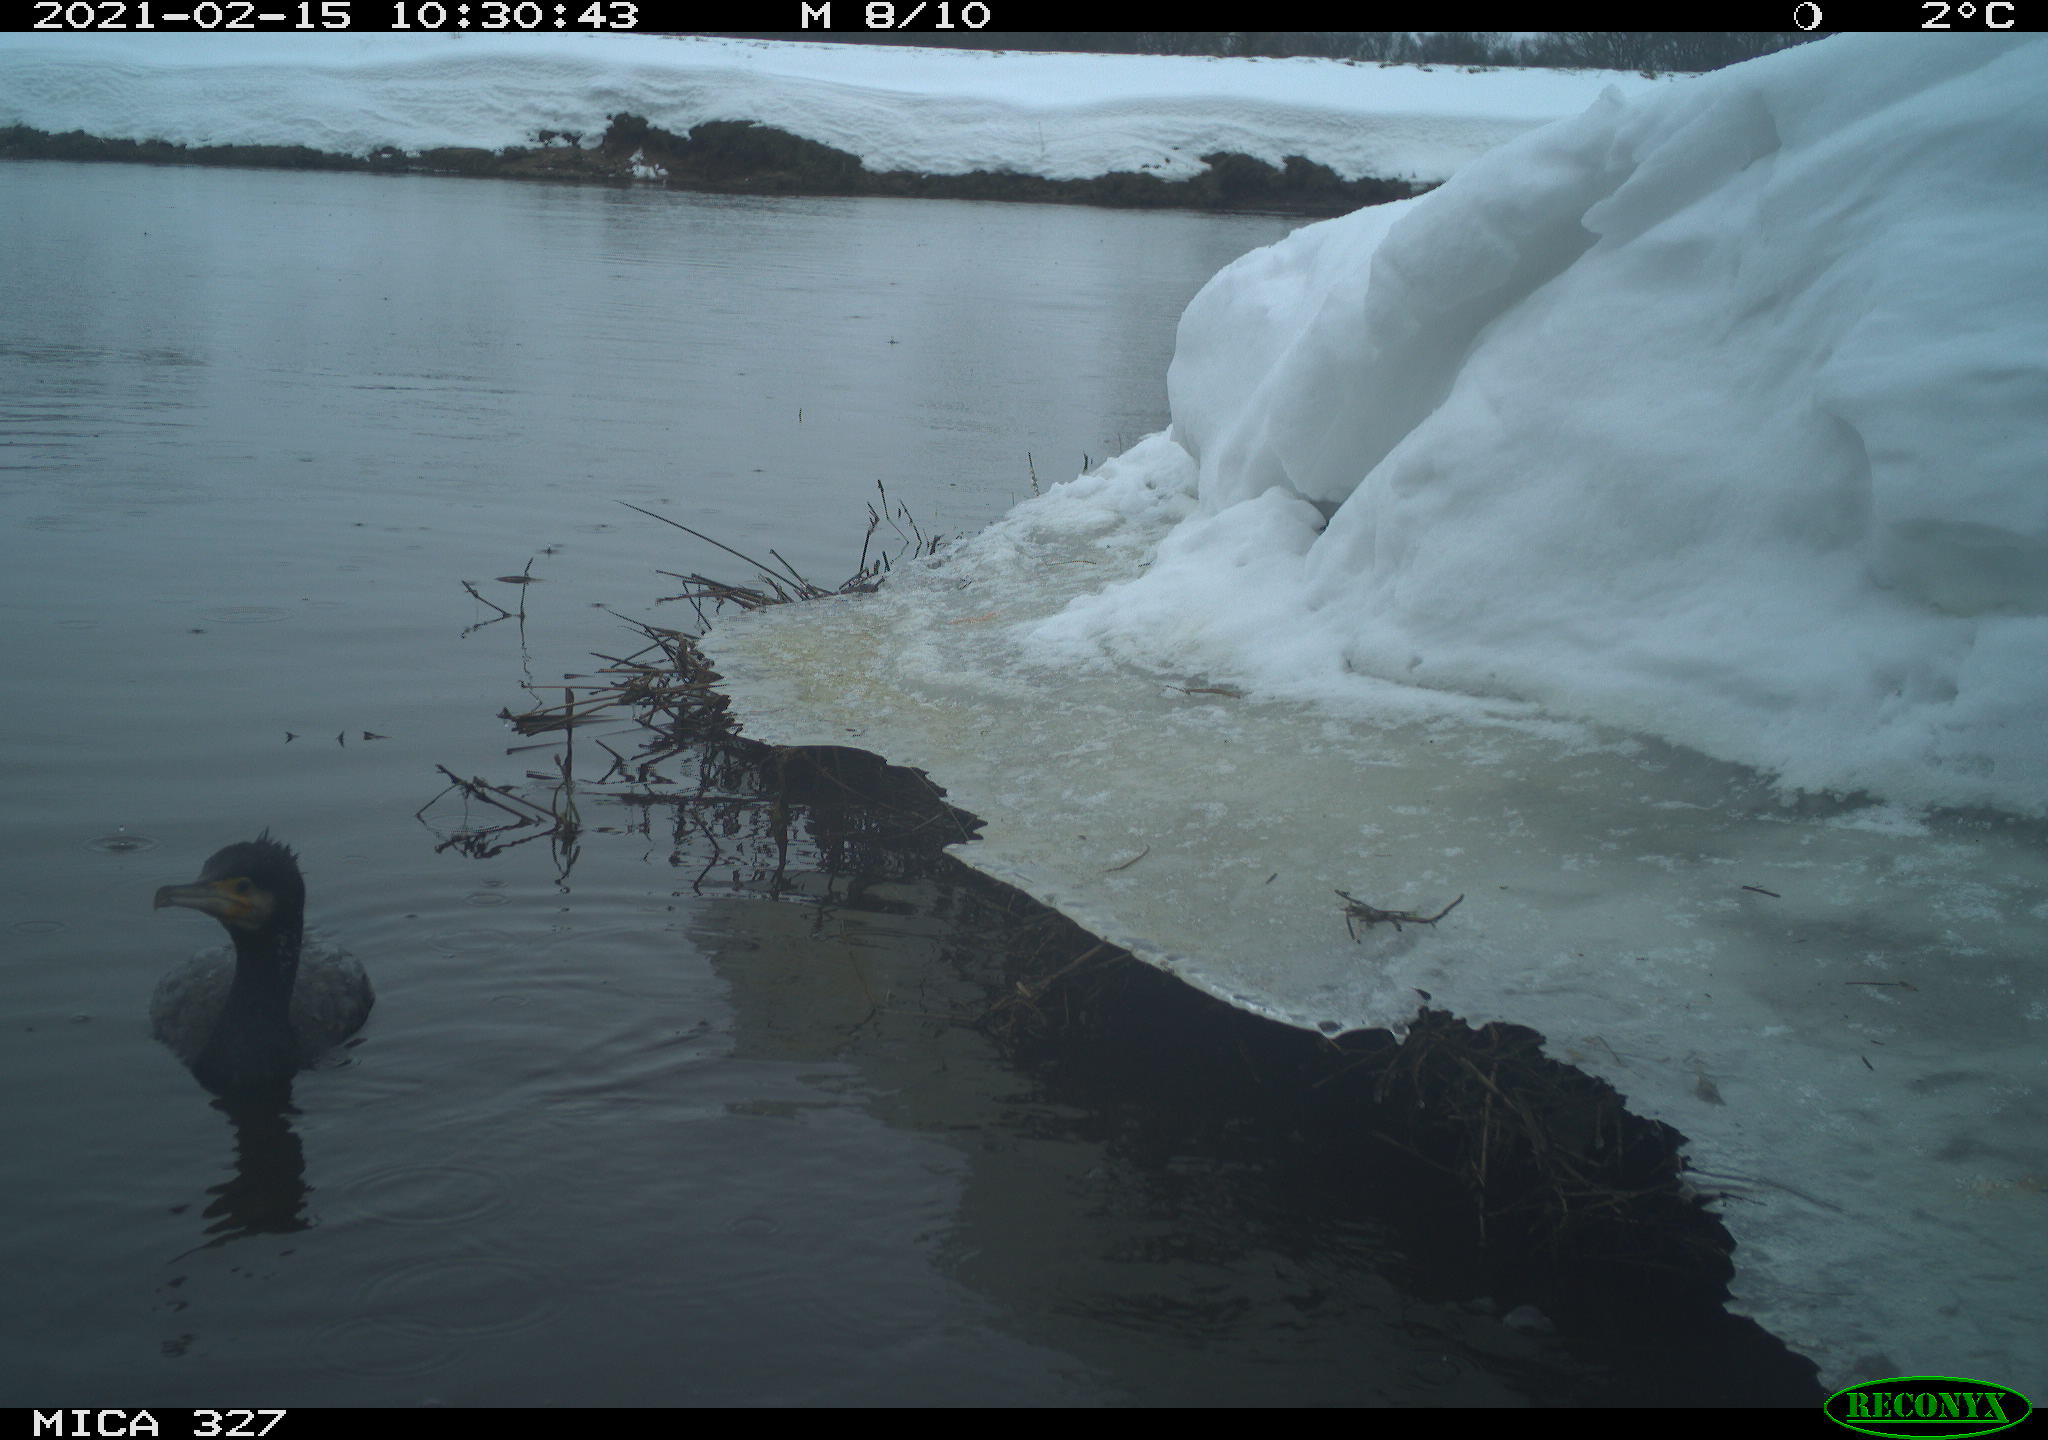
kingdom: Animalia
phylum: Chordata
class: Aves
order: Suliformes
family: Phalacrocoracidae
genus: Phalacrocorax
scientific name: Phalacrocorax carbo
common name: Great cormorant
